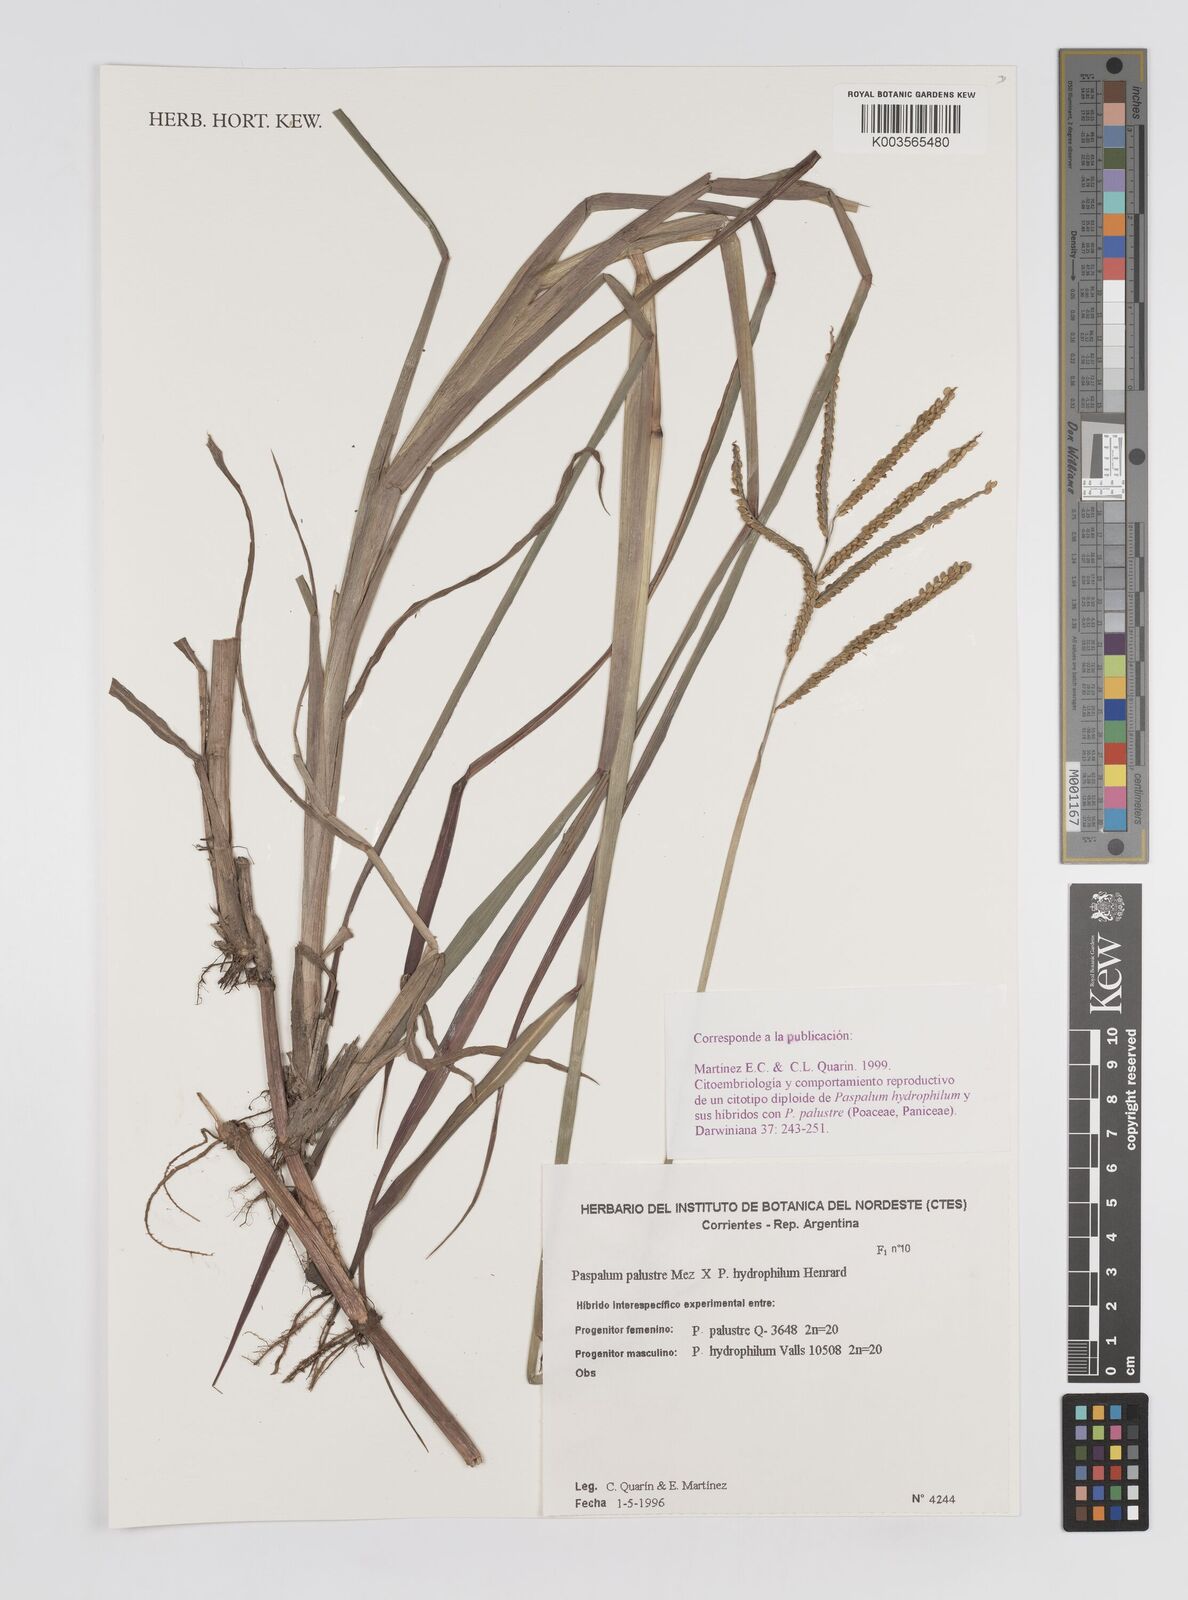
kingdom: Plantae
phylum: Tracheophyta
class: Liliopsida
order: Poales
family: Poaceae
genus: Paspalum
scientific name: Paspalum wrightii
